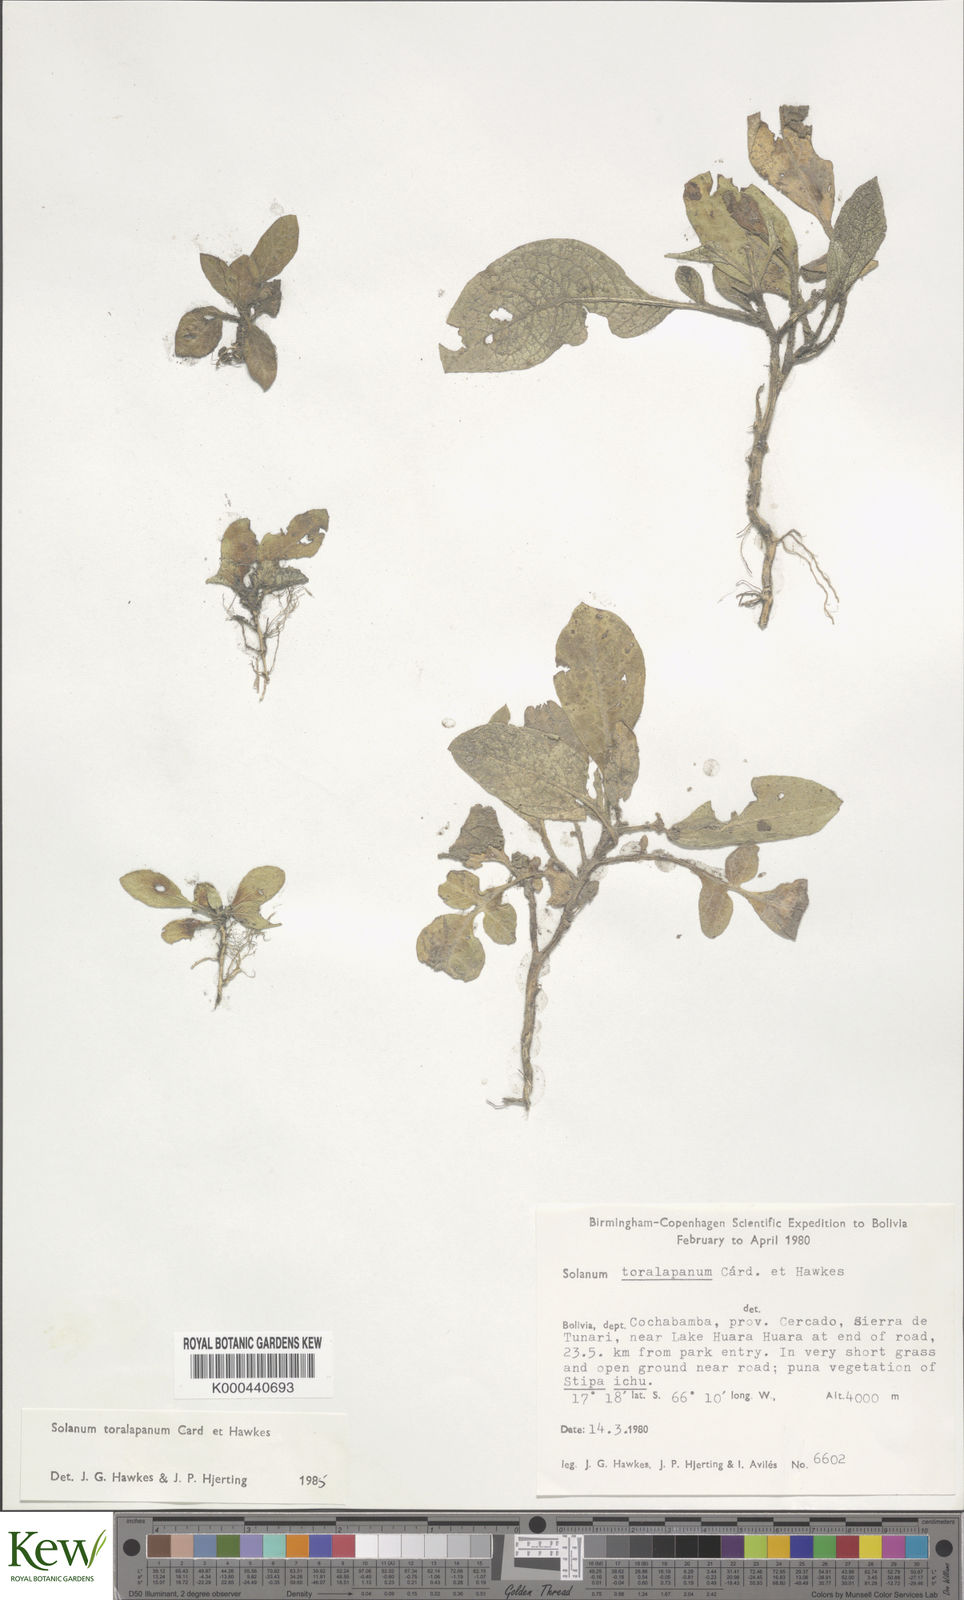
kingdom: Plantae
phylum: Tracheophyta
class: Magnoliopsida
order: Solanales
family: Solanaceae
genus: Solanum
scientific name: Solanum boliviense
